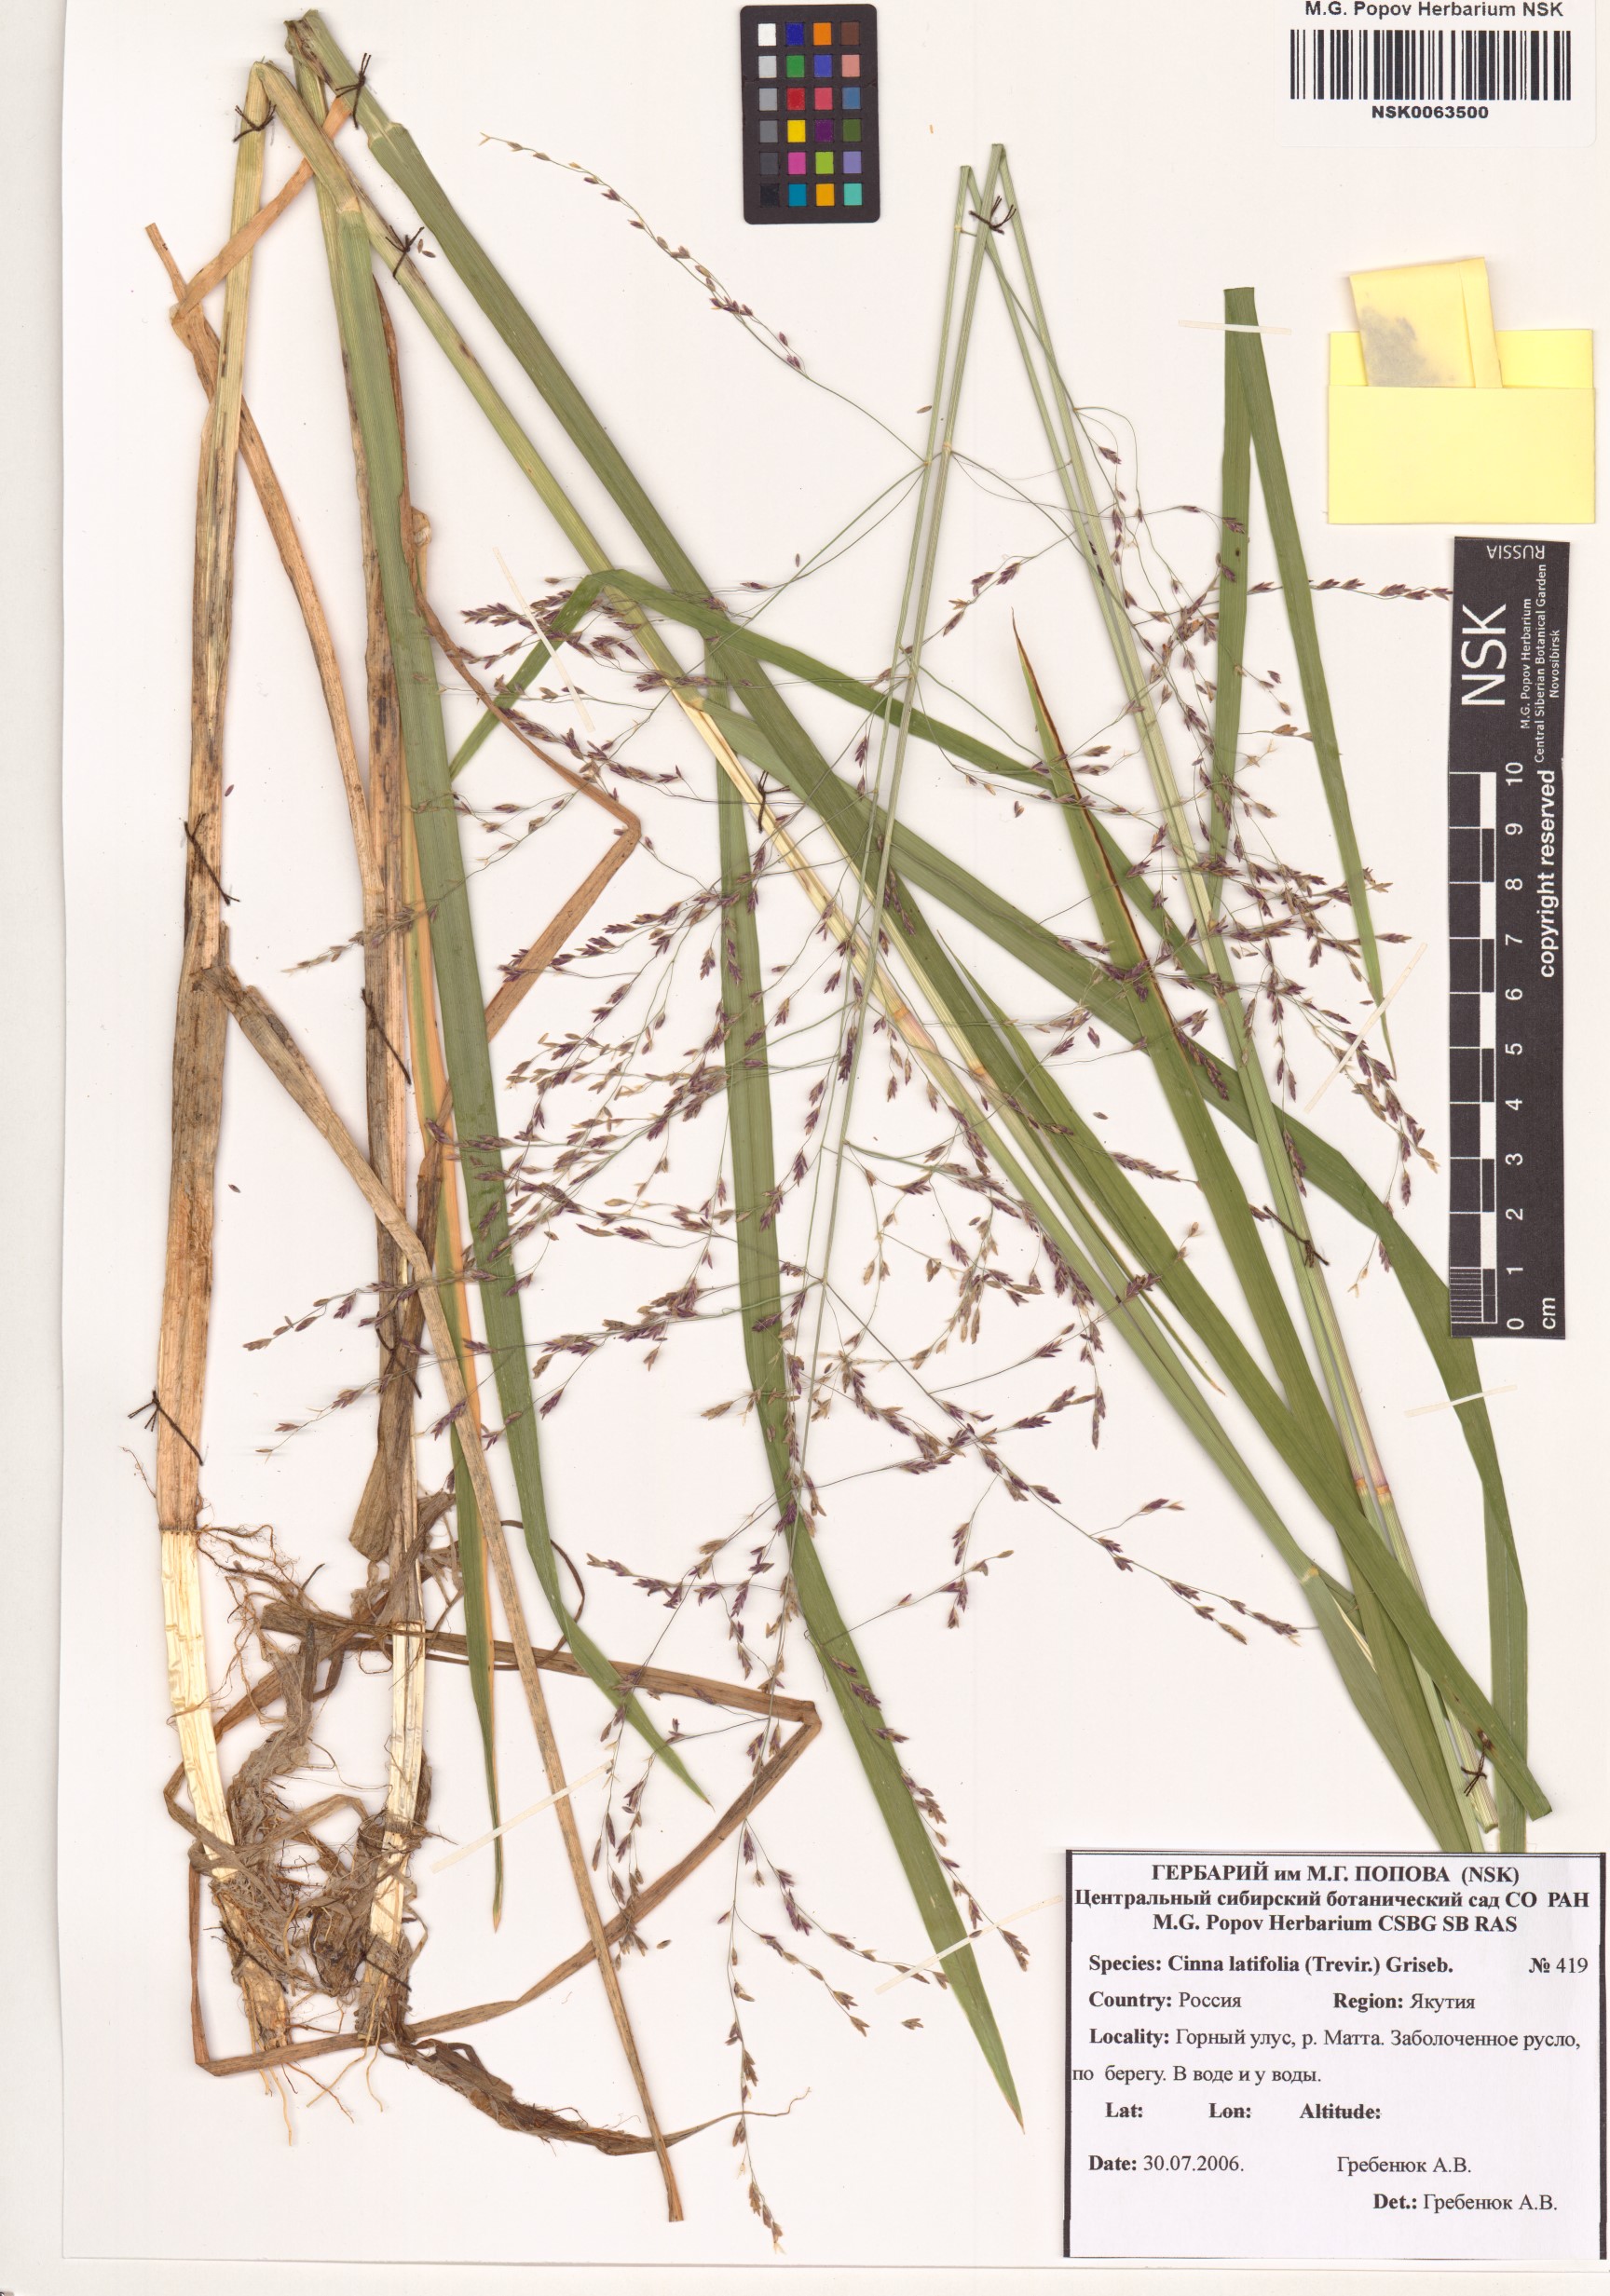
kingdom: Plantae
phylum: Tracheophyta
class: Liliopsida
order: Poales
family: Poaceae
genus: Cinna
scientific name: Cinna latifolia
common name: Drooping woodreed
